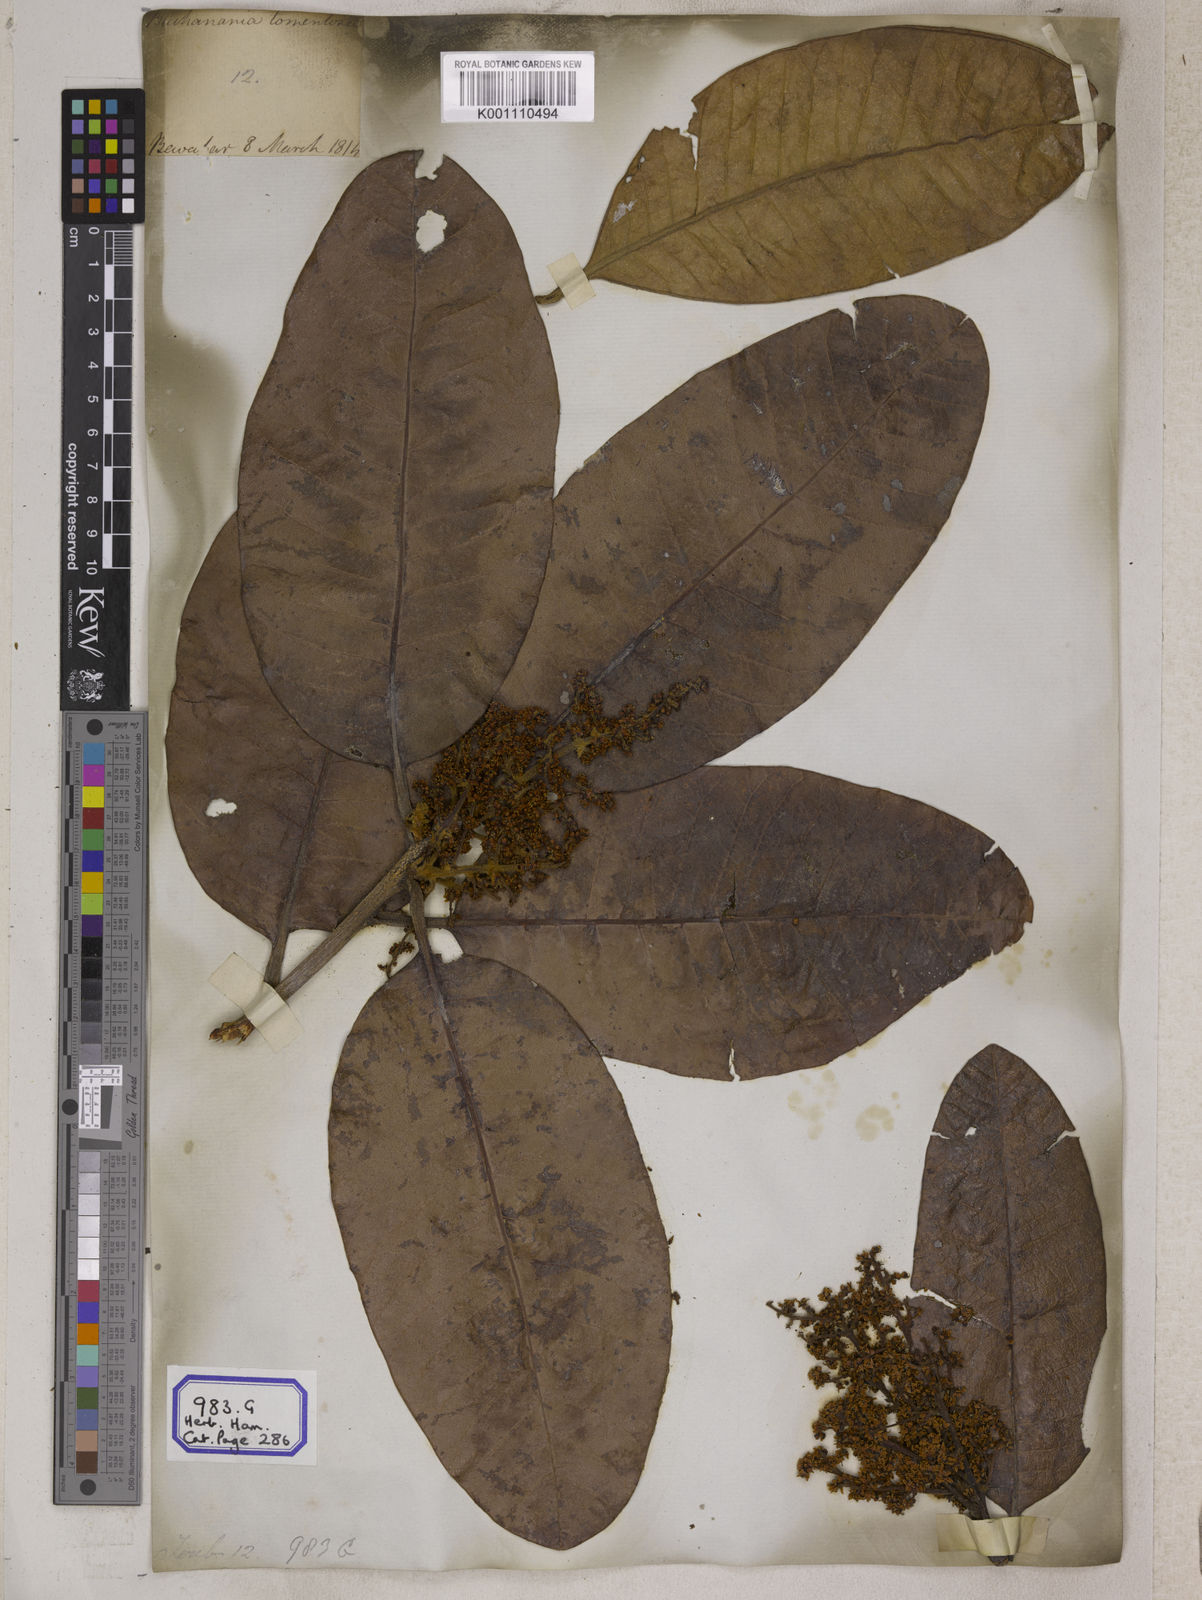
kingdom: Plantae
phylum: Tracheophyta
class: Magnoliopsida
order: Sapindales
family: Anacardiaceae
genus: Buchanania
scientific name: Buchanania cochinchinensis
